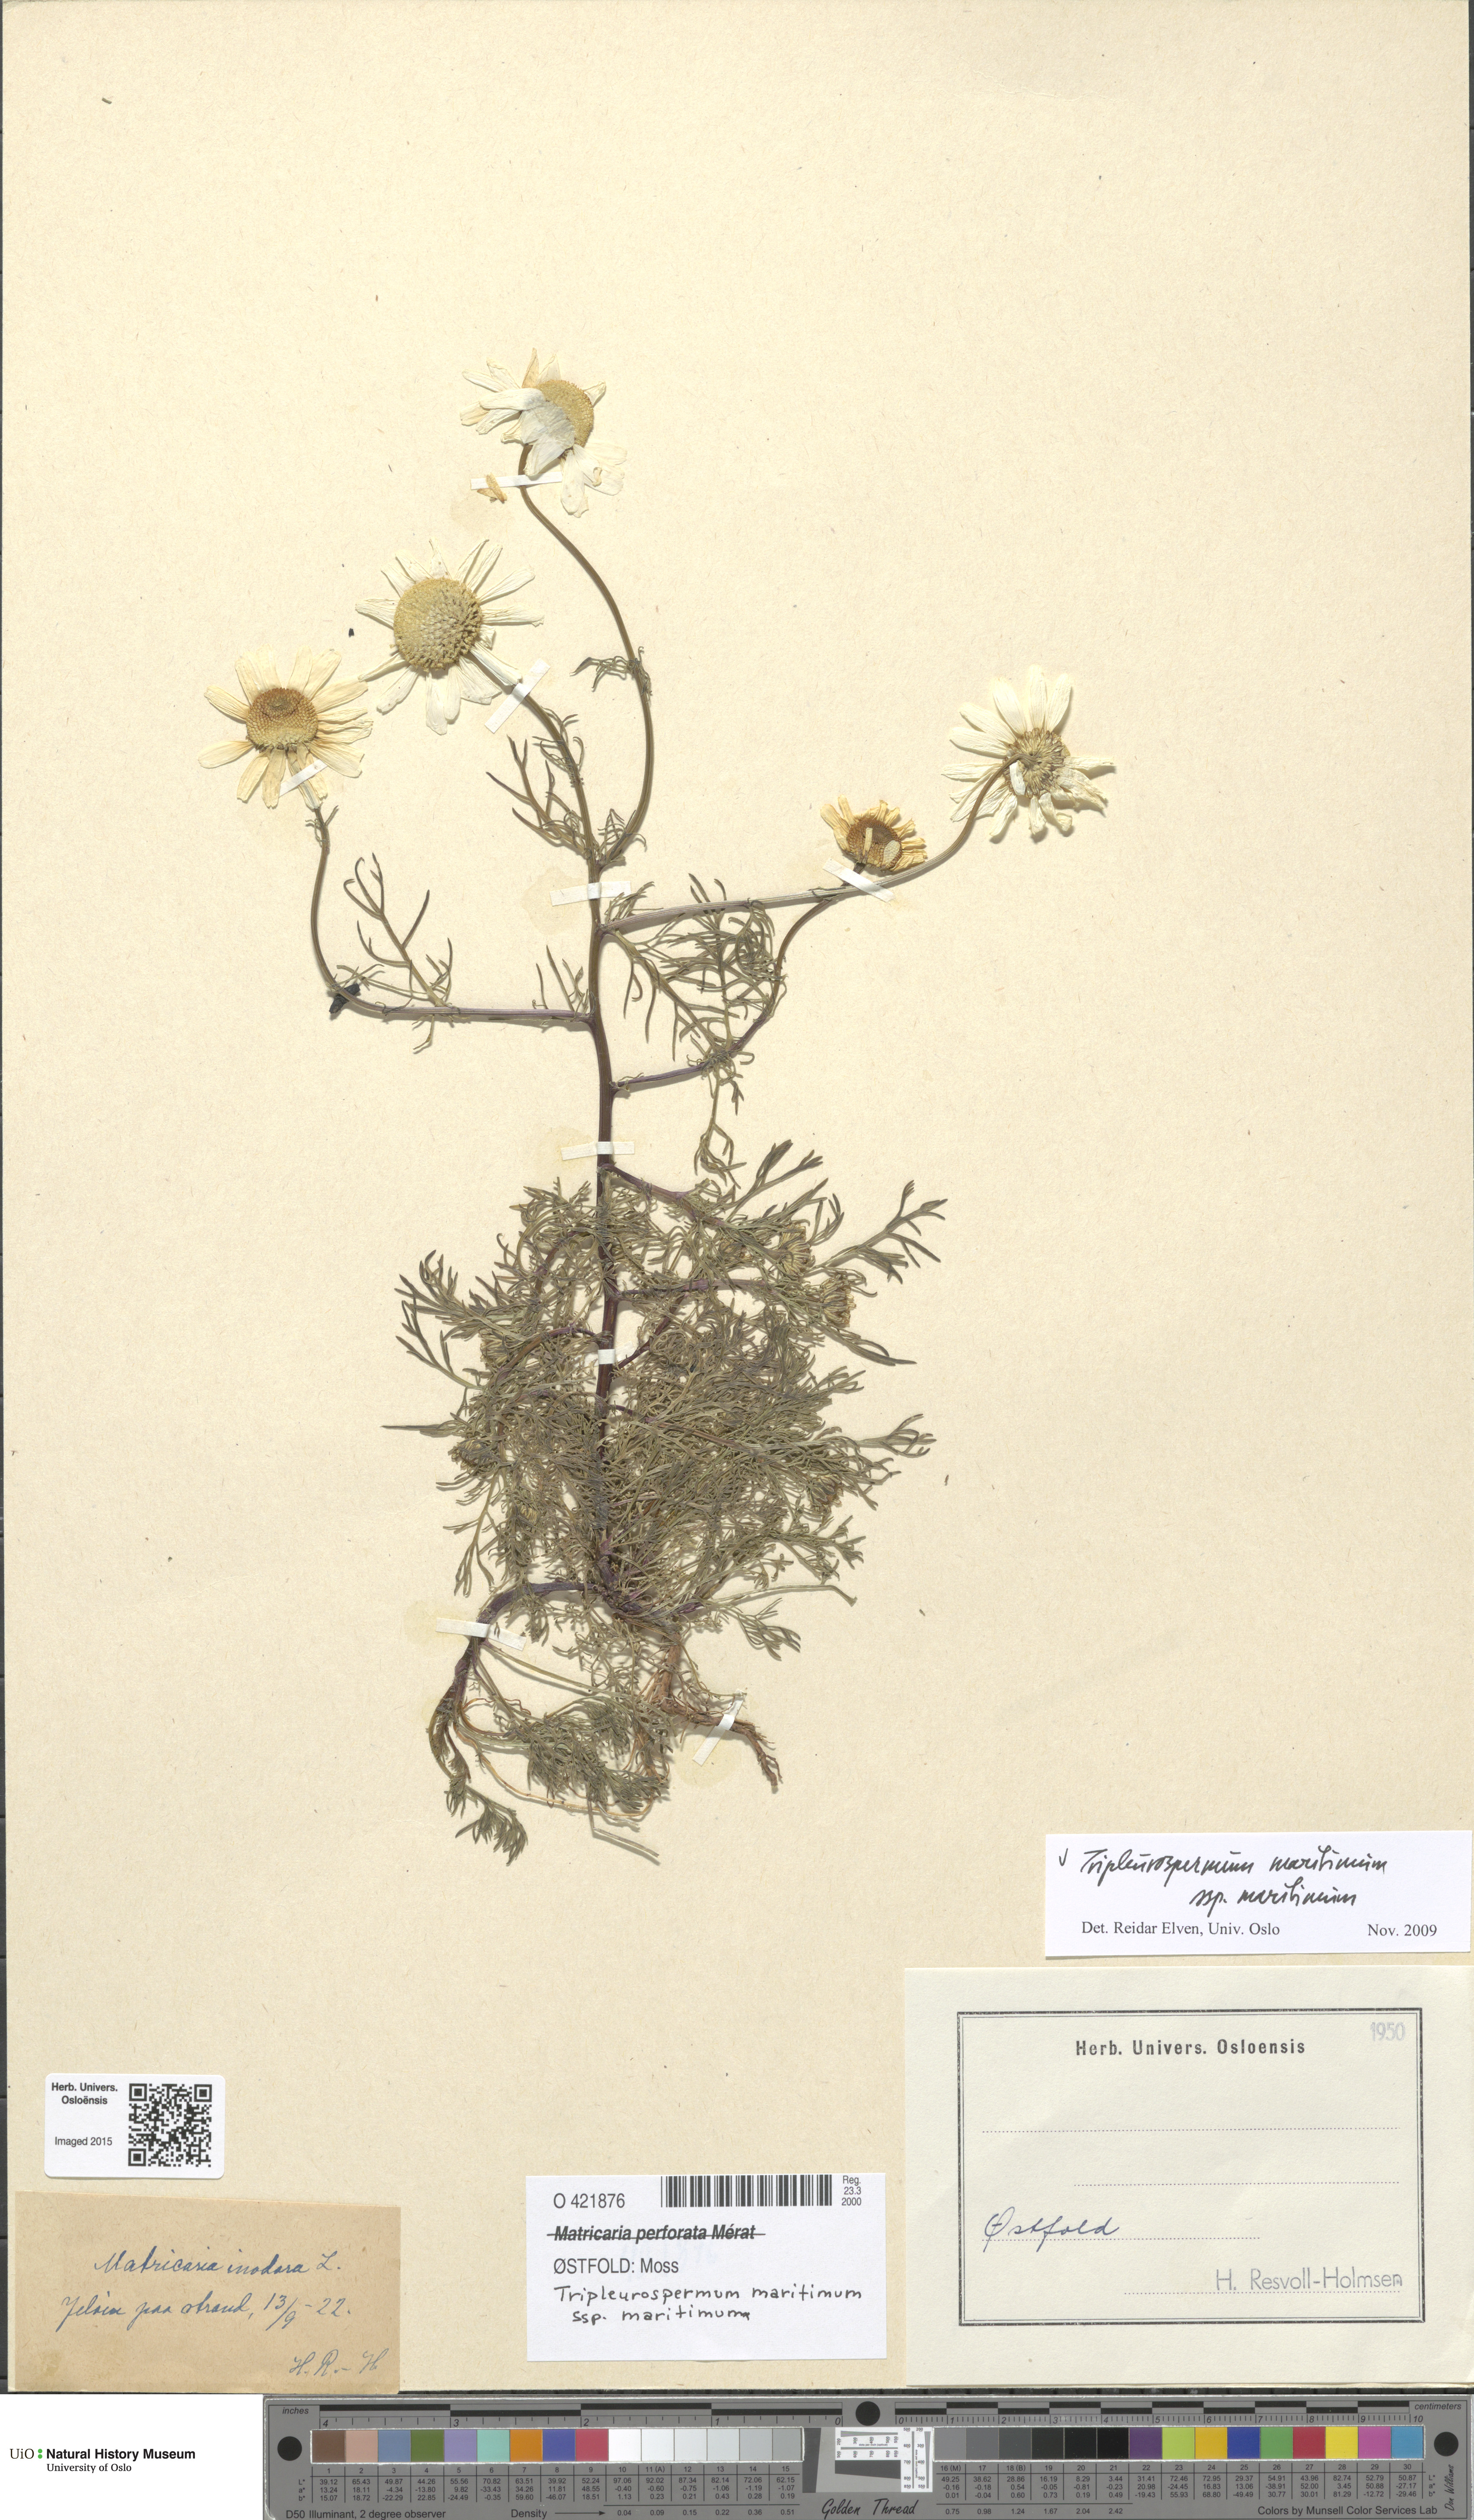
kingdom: Plantae
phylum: Tracheophyta
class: Magnoliopsida
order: Asterales
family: Asteraceae
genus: Tripleurospermum
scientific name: Tripleurospermum maritimum
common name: Sea mayweed
